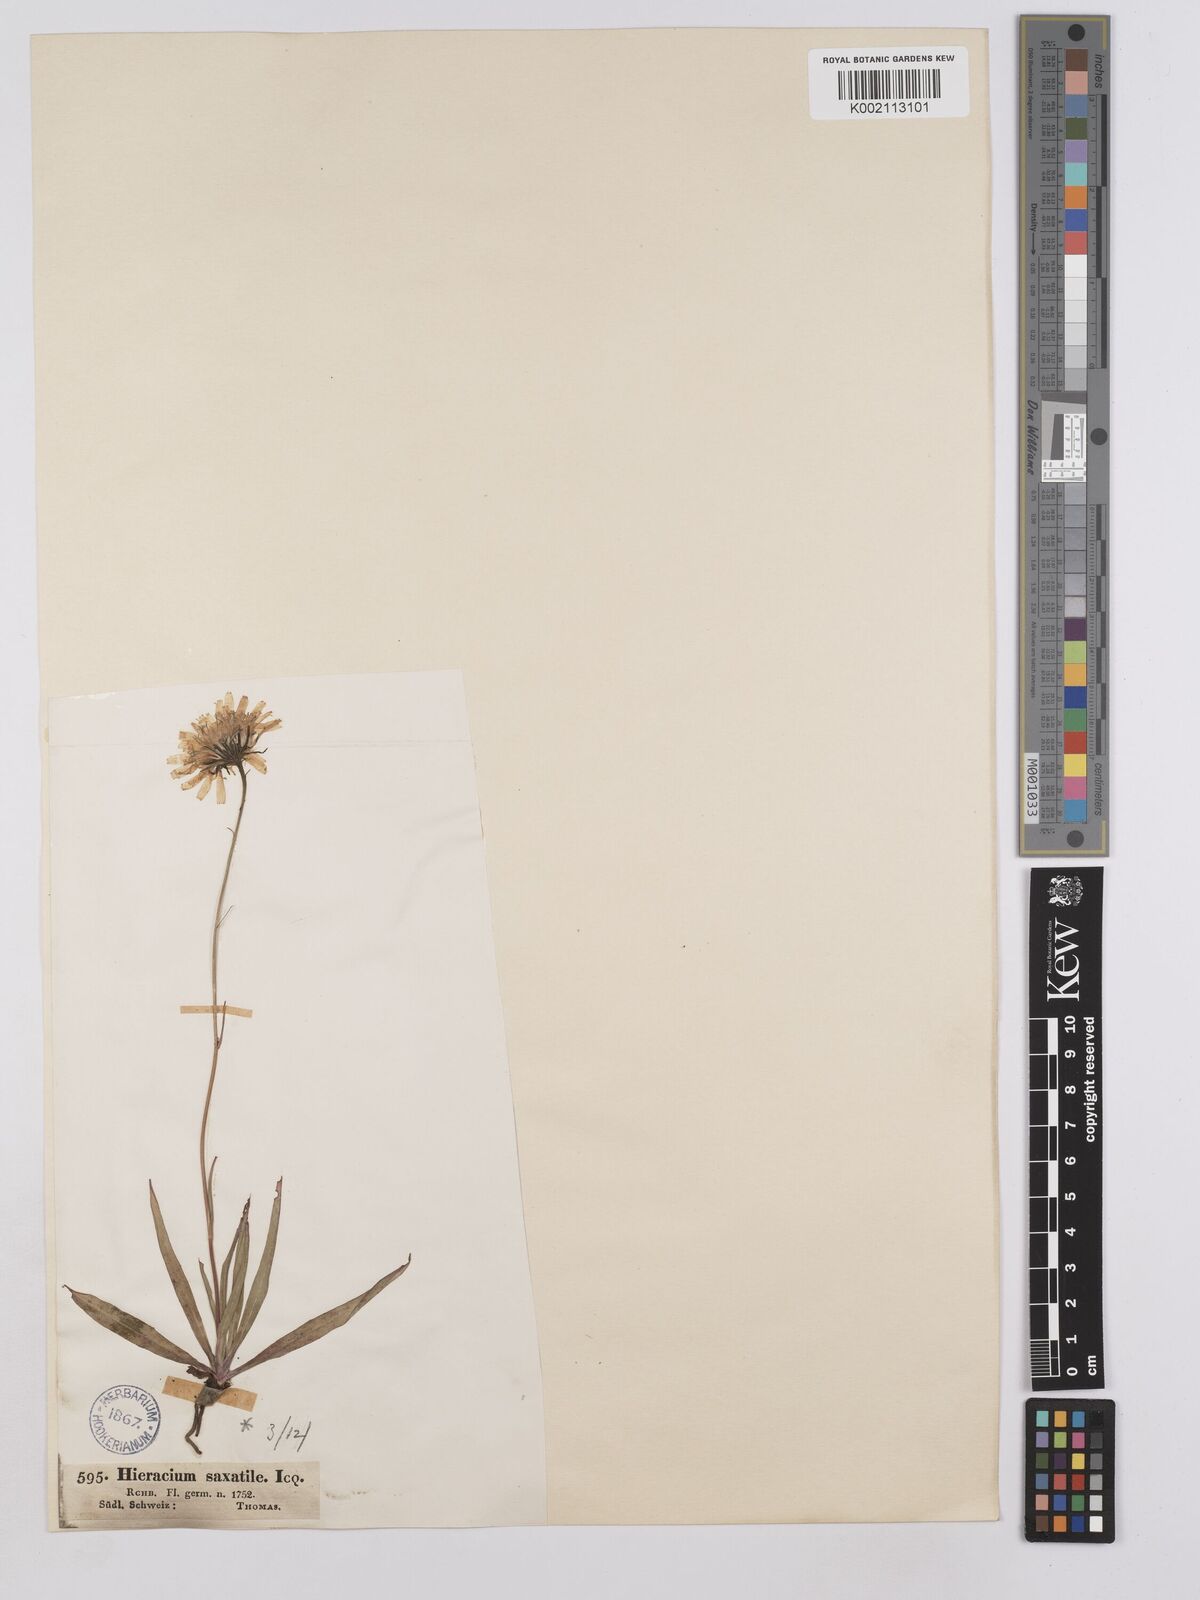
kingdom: Plantae
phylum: Tracheophyta
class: Magnoliopsida
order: Asterales
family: Asteraceae
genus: Hieracium
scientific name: Hieracium glaucum
